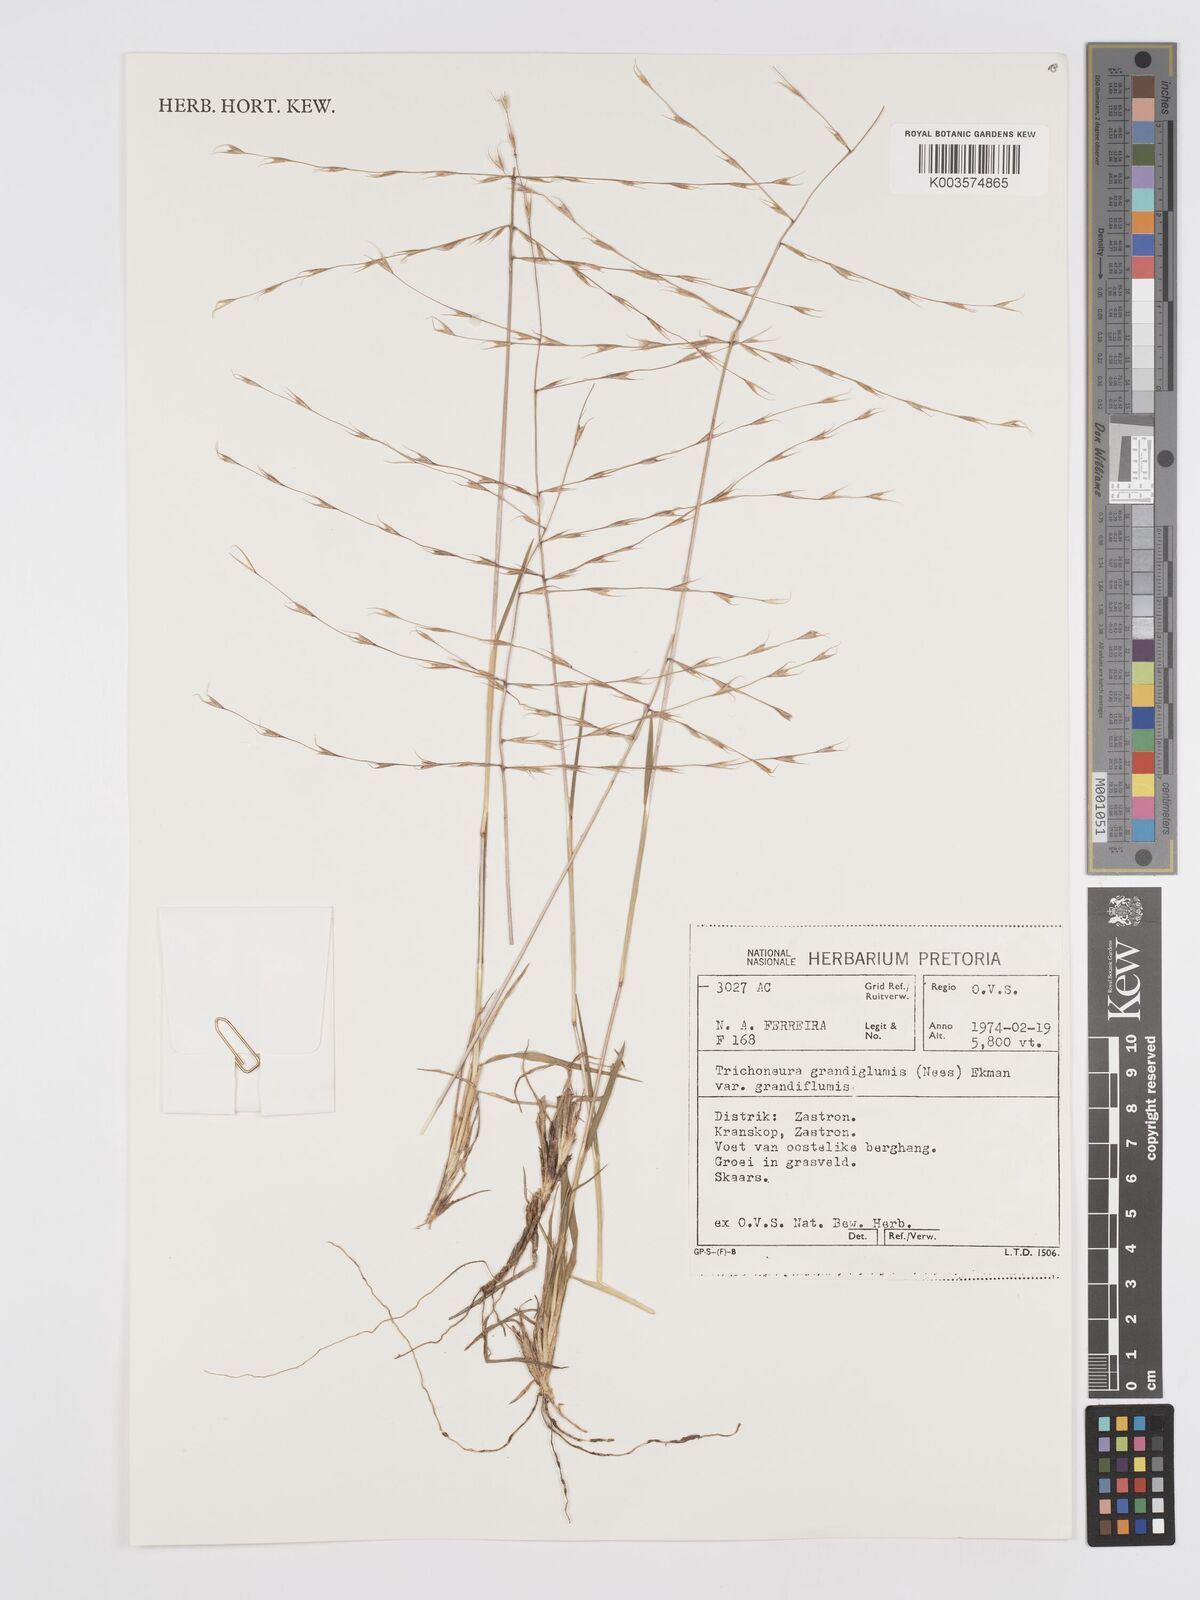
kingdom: Plantae
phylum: Tracheophyta
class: Liliopsida
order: Poales
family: Poaceae
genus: Trichoneura
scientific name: Trichoneura grandiglumis
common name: Rolling grass
